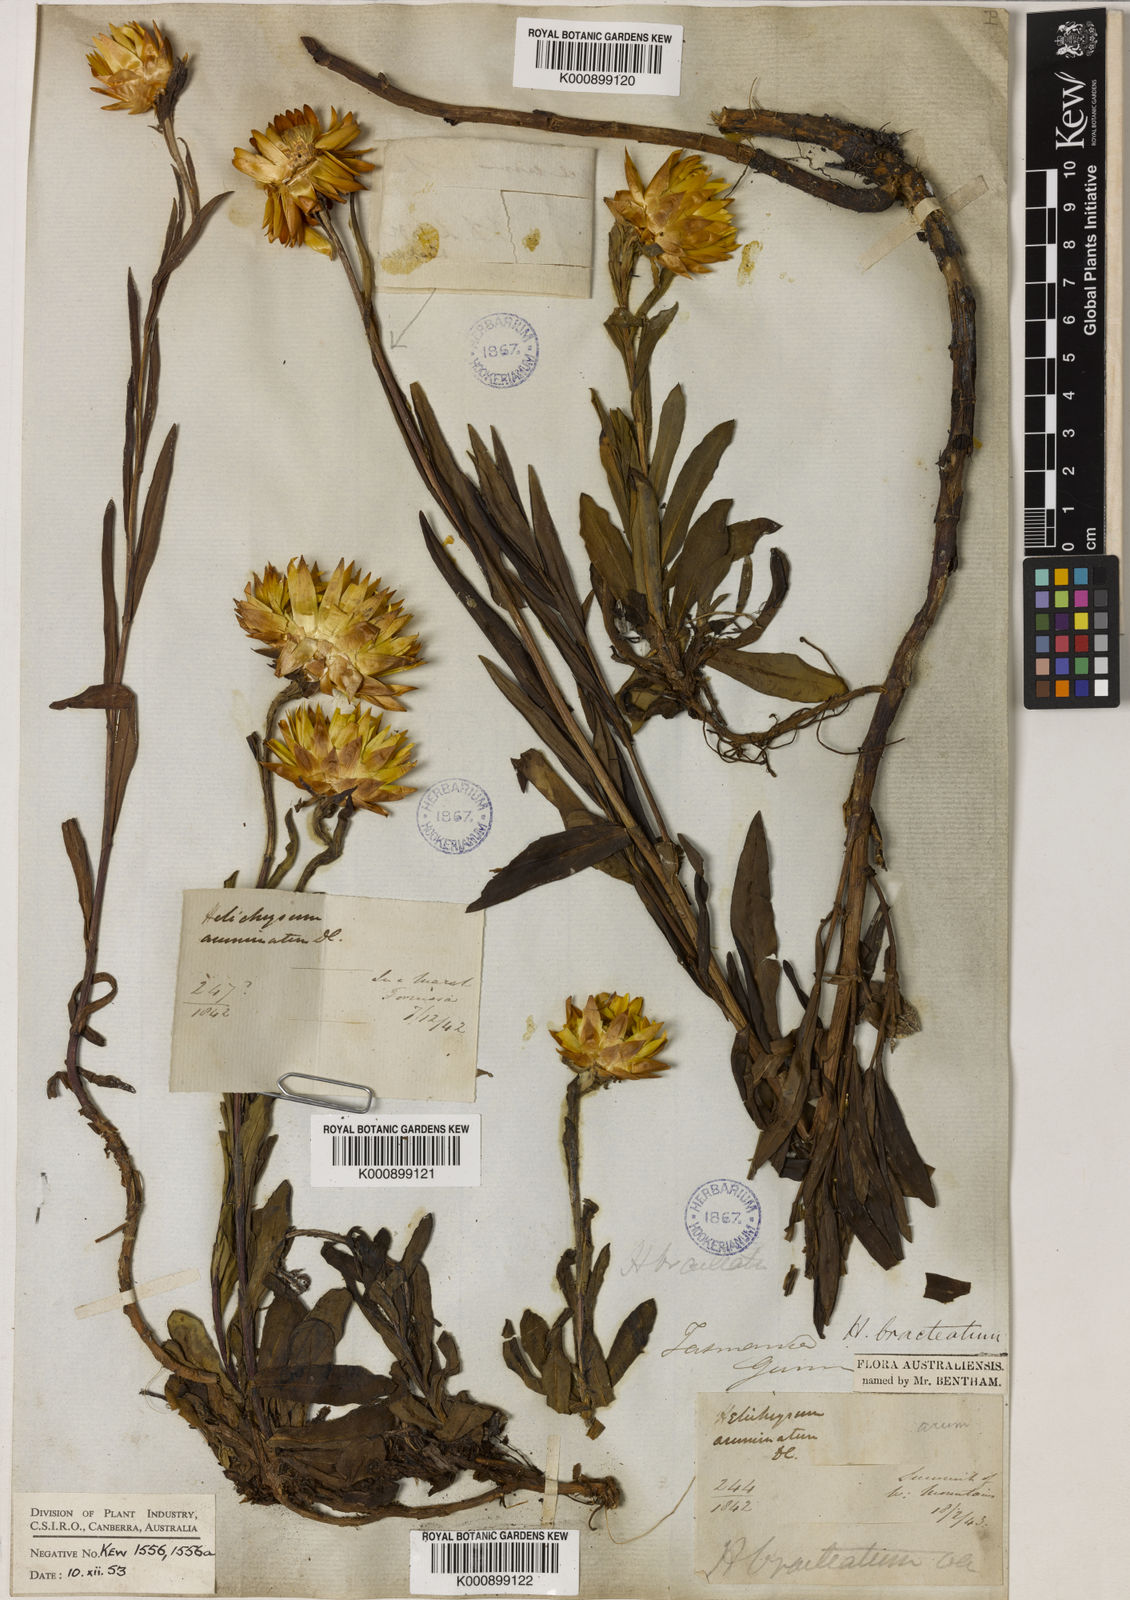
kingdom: Plantae
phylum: Tracheophyta
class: Magnoliopsida
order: Asterales
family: Asteraceae
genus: Xerochrysum
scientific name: Xerochrysum bracteatum
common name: Bracted strawflower
